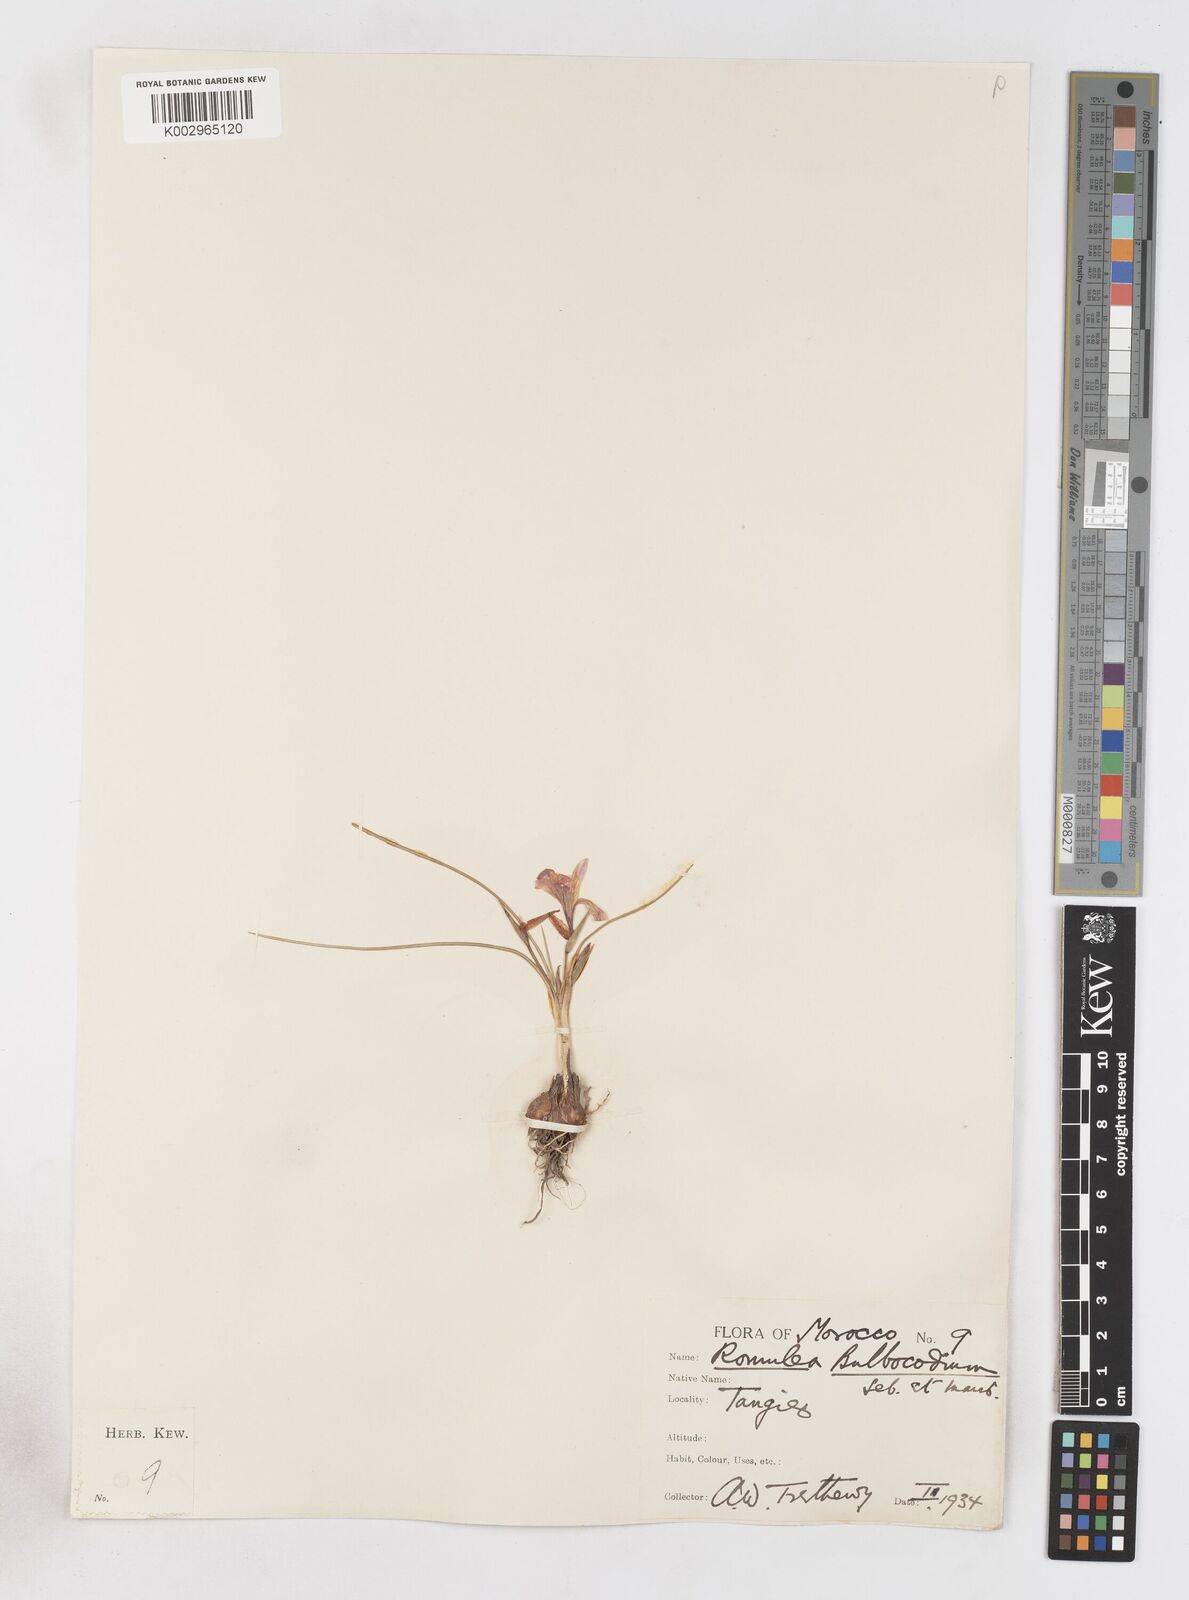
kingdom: Plantae
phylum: Tracheophyta
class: Liliopsida
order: Asparagales
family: Iridaceae
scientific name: Iridaceae
